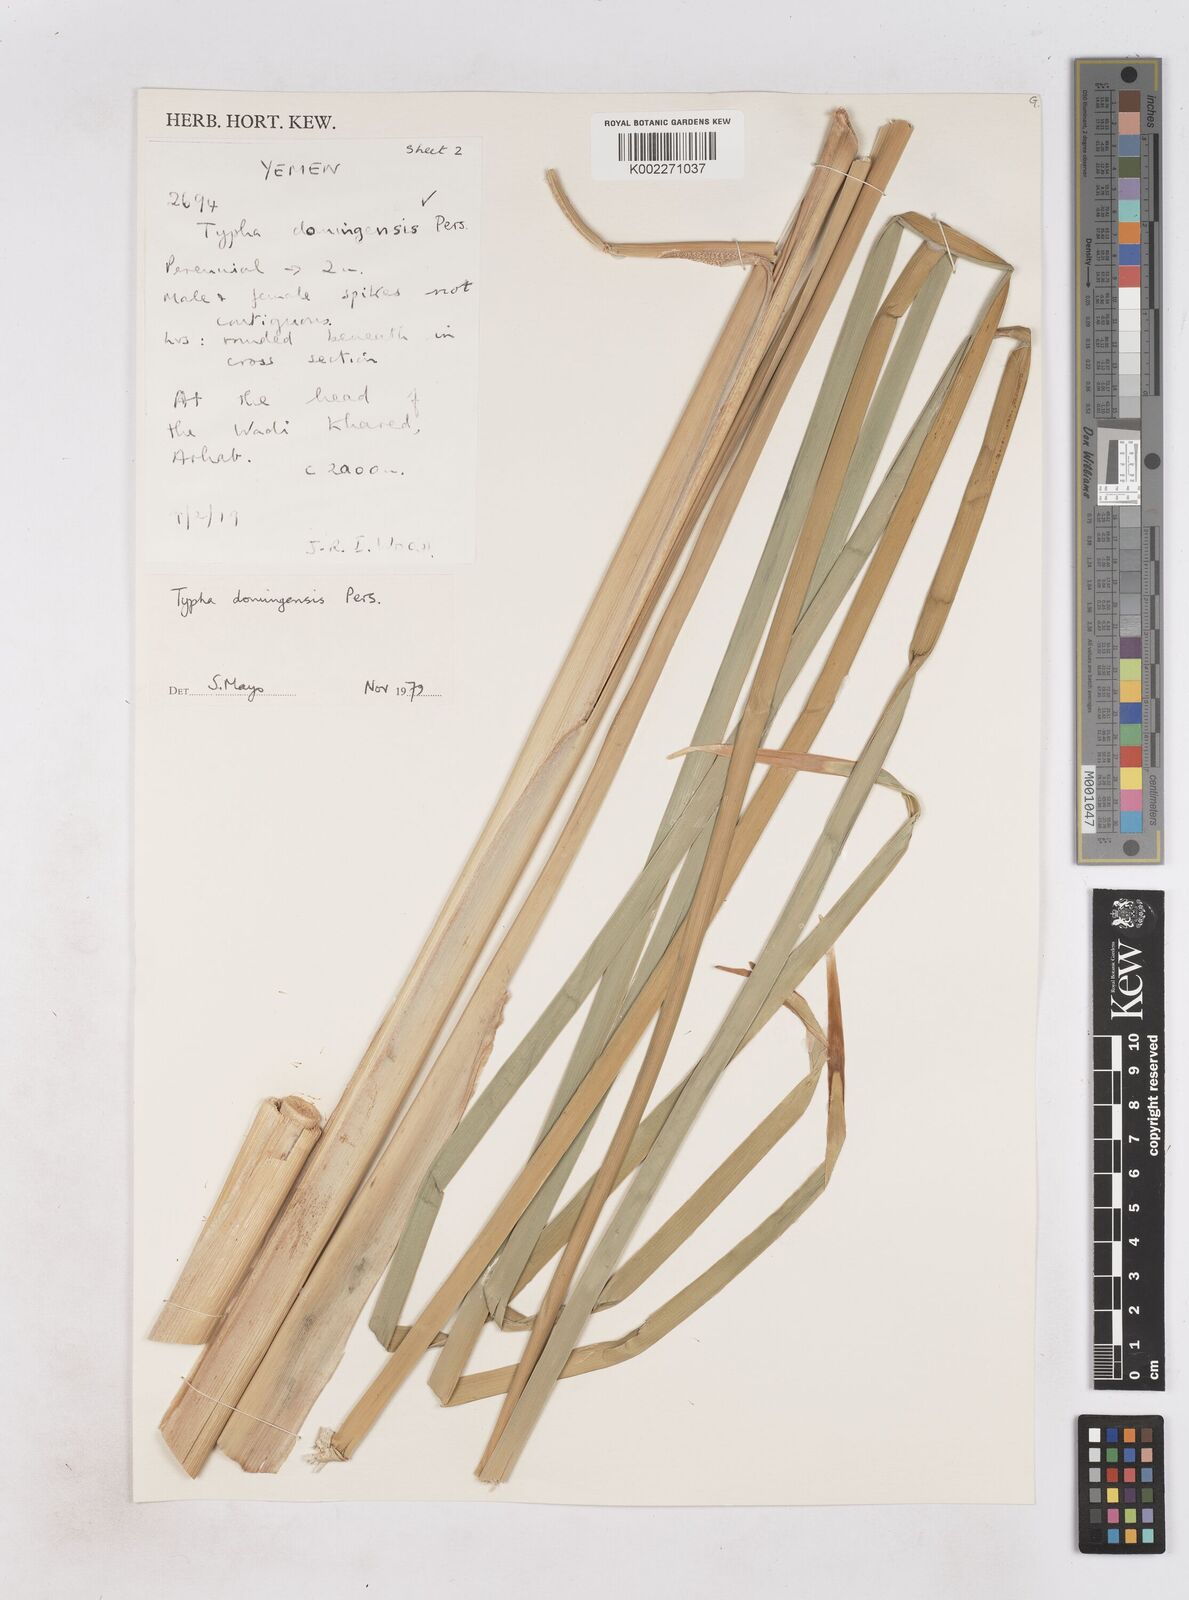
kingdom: Plantae
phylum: Tracheophyta
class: Liliopsida
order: Poales
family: Typhaceae
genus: Typha
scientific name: Typha domingensis
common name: Southern cattail
